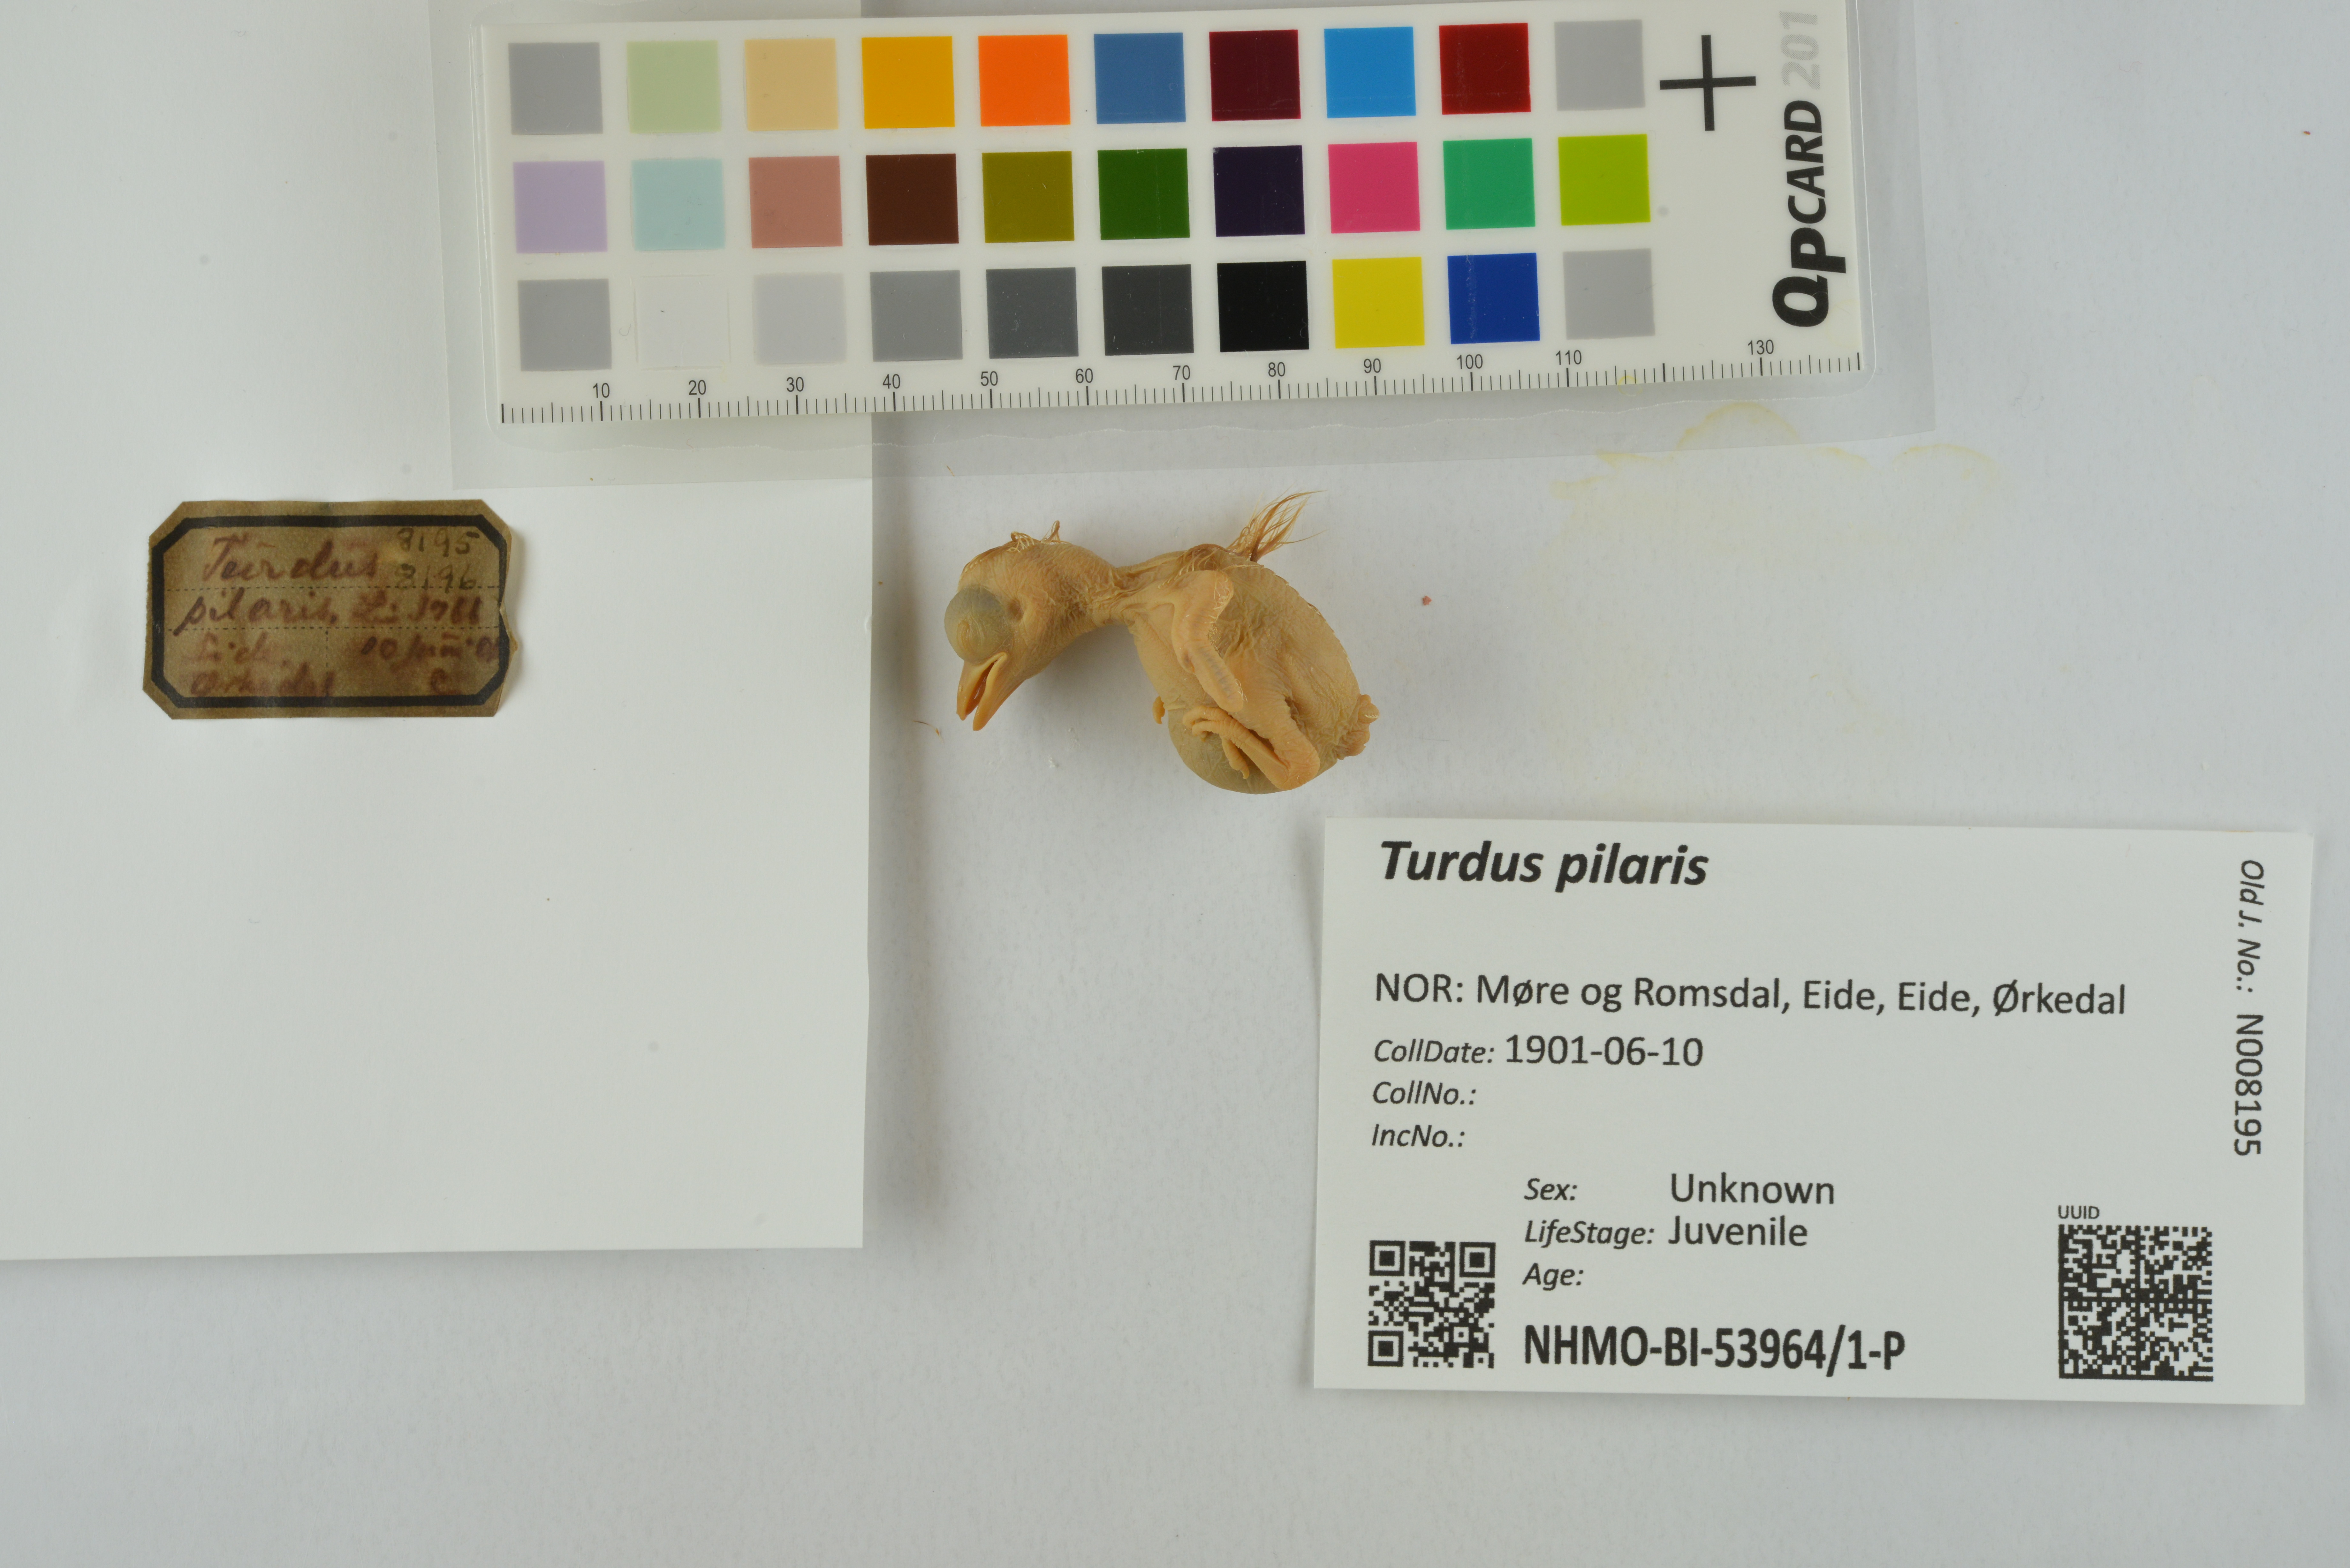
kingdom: Animalia
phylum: Chordata
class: Aves
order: Passeriformes
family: Turdidae
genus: Turdus
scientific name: Turdus pilaris
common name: Fieldfare
